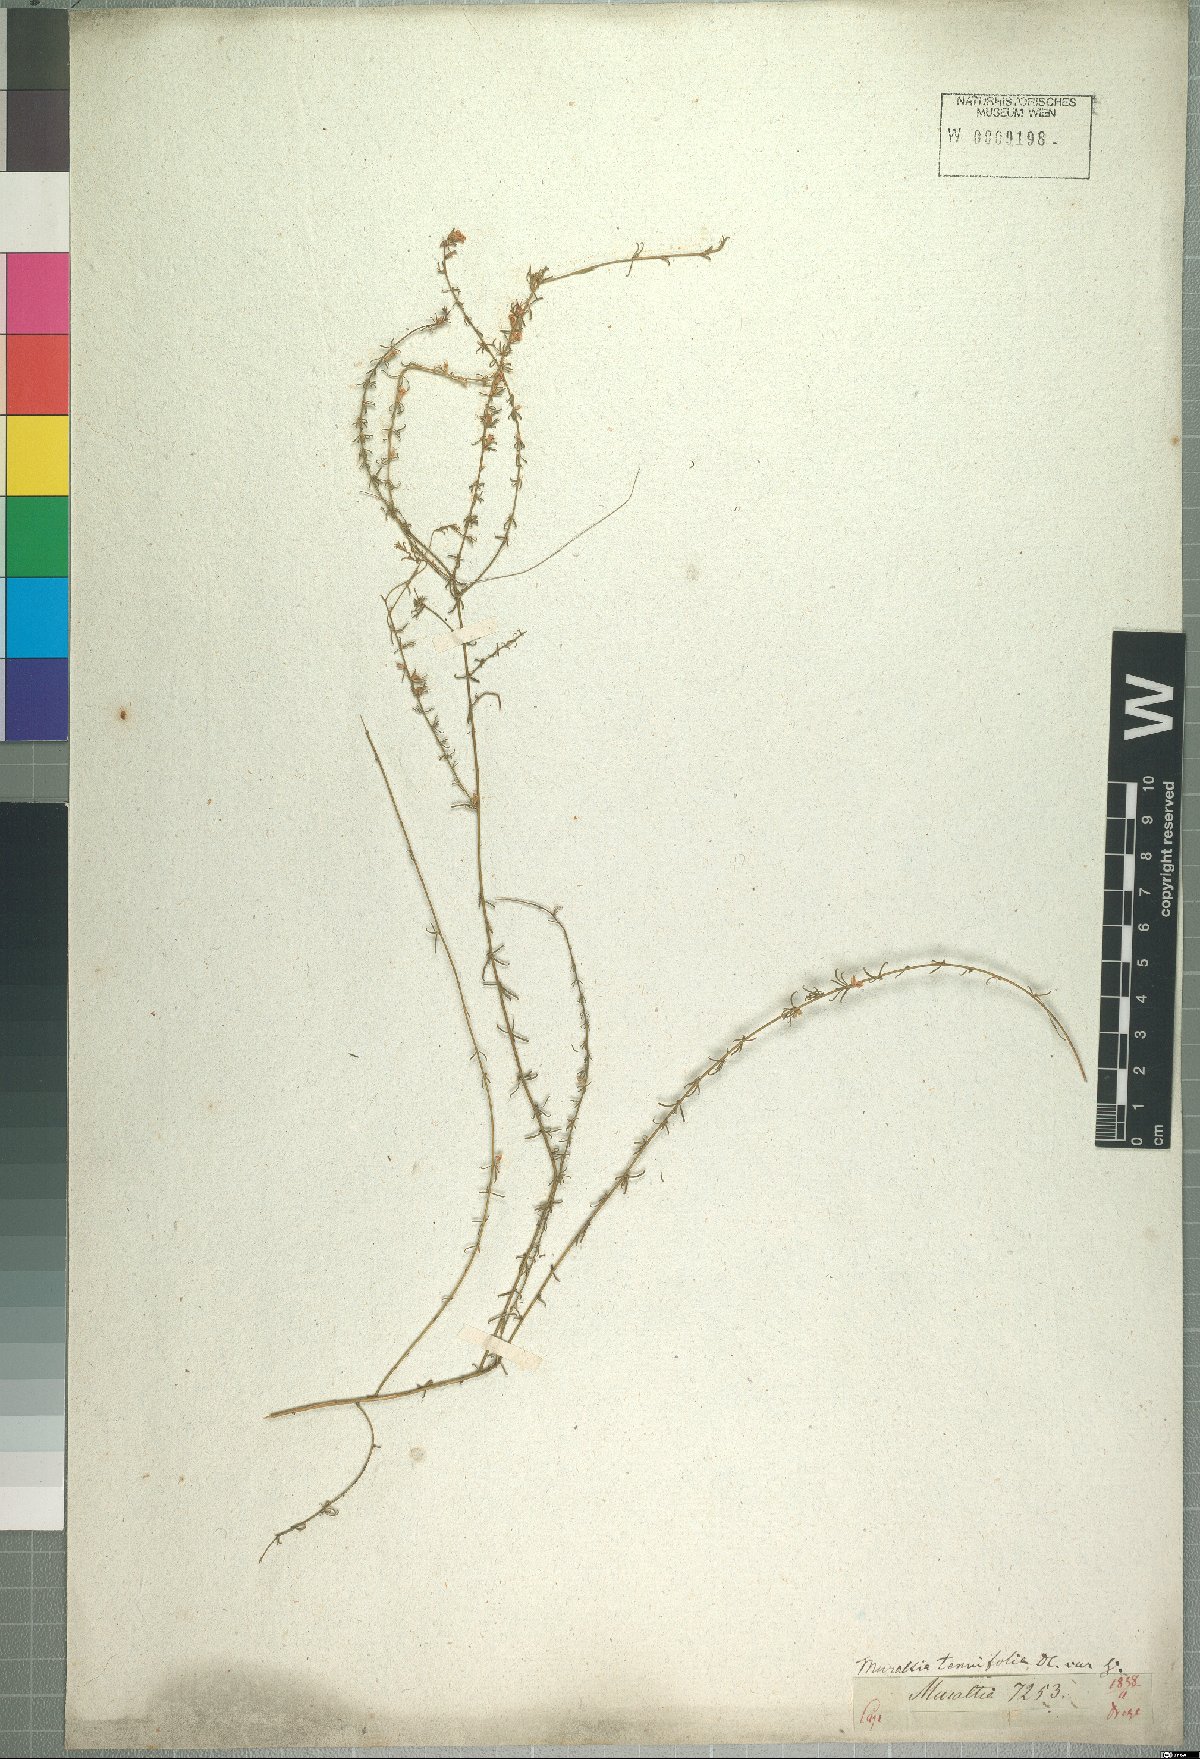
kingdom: Plantae
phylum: Tracheophyta
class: Magnoliopsida
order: Fabales
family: Polygalaceae
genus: Muraltia
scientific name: Muraltia tenuifolia
